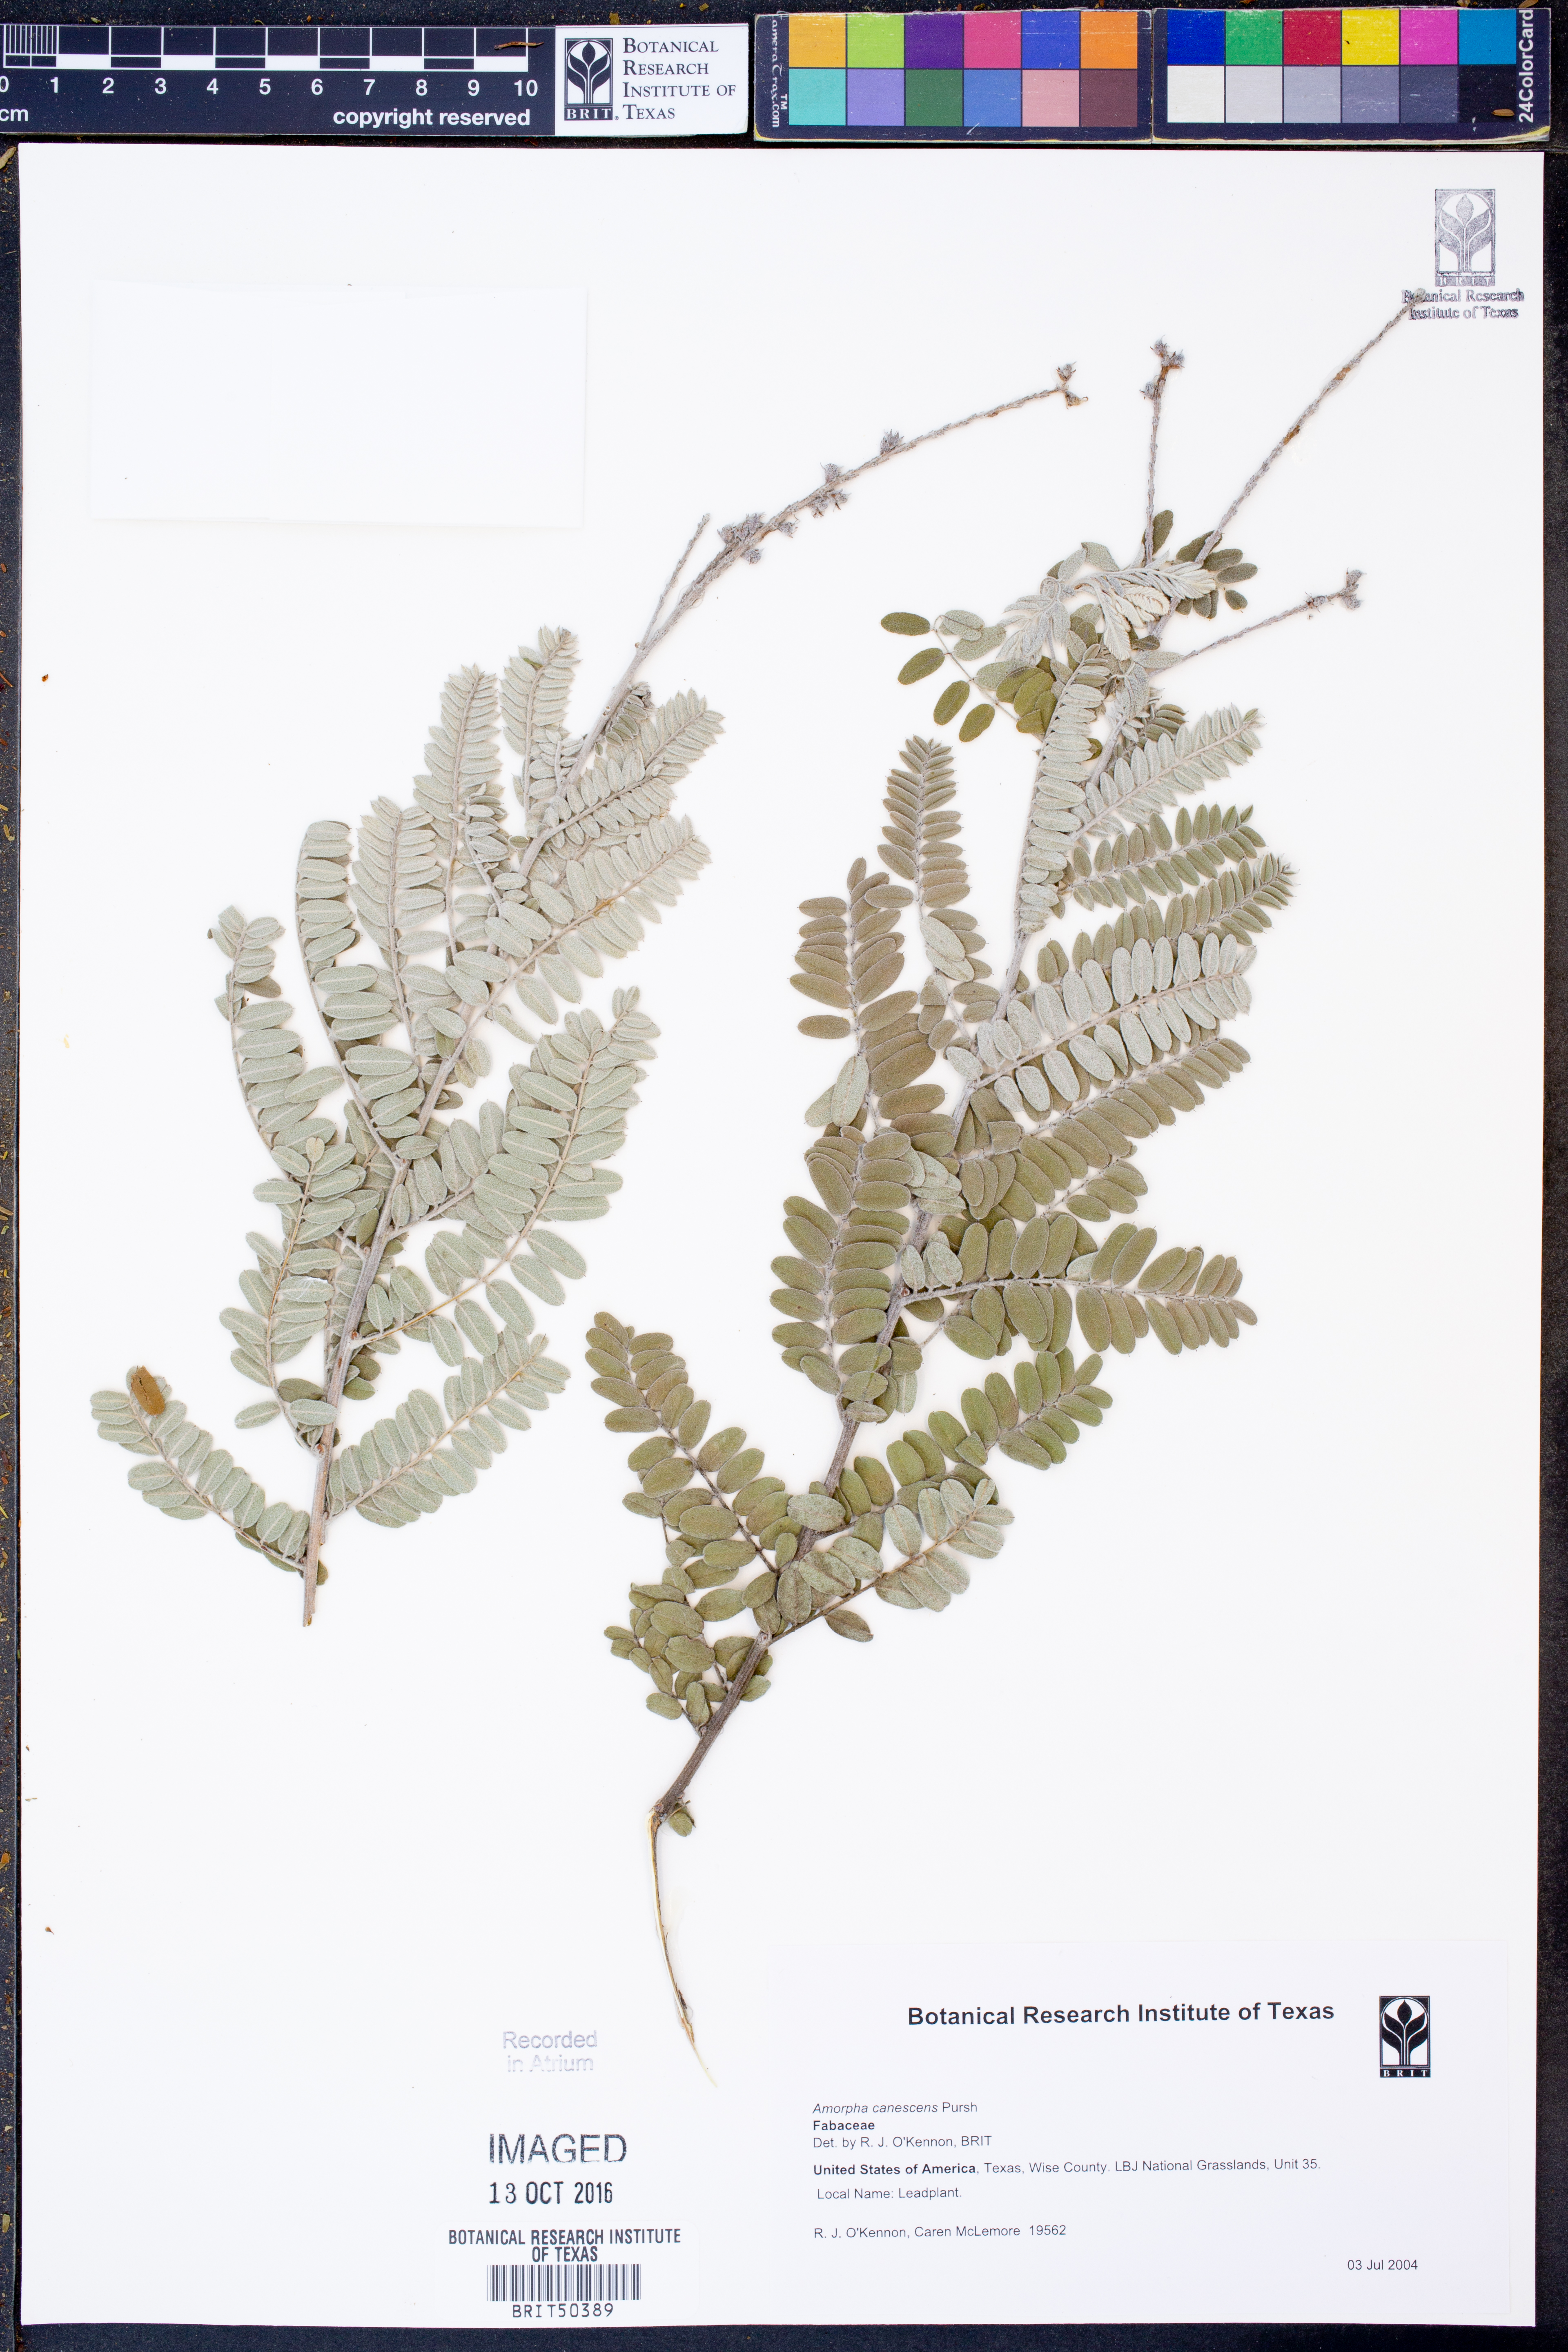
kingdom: Plantae
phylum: Tracheophyta
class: Magnoliopsida
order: Fabales
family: Fabaceae
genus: Amorpha
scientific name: Amorpha canescens
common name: Leadplant
